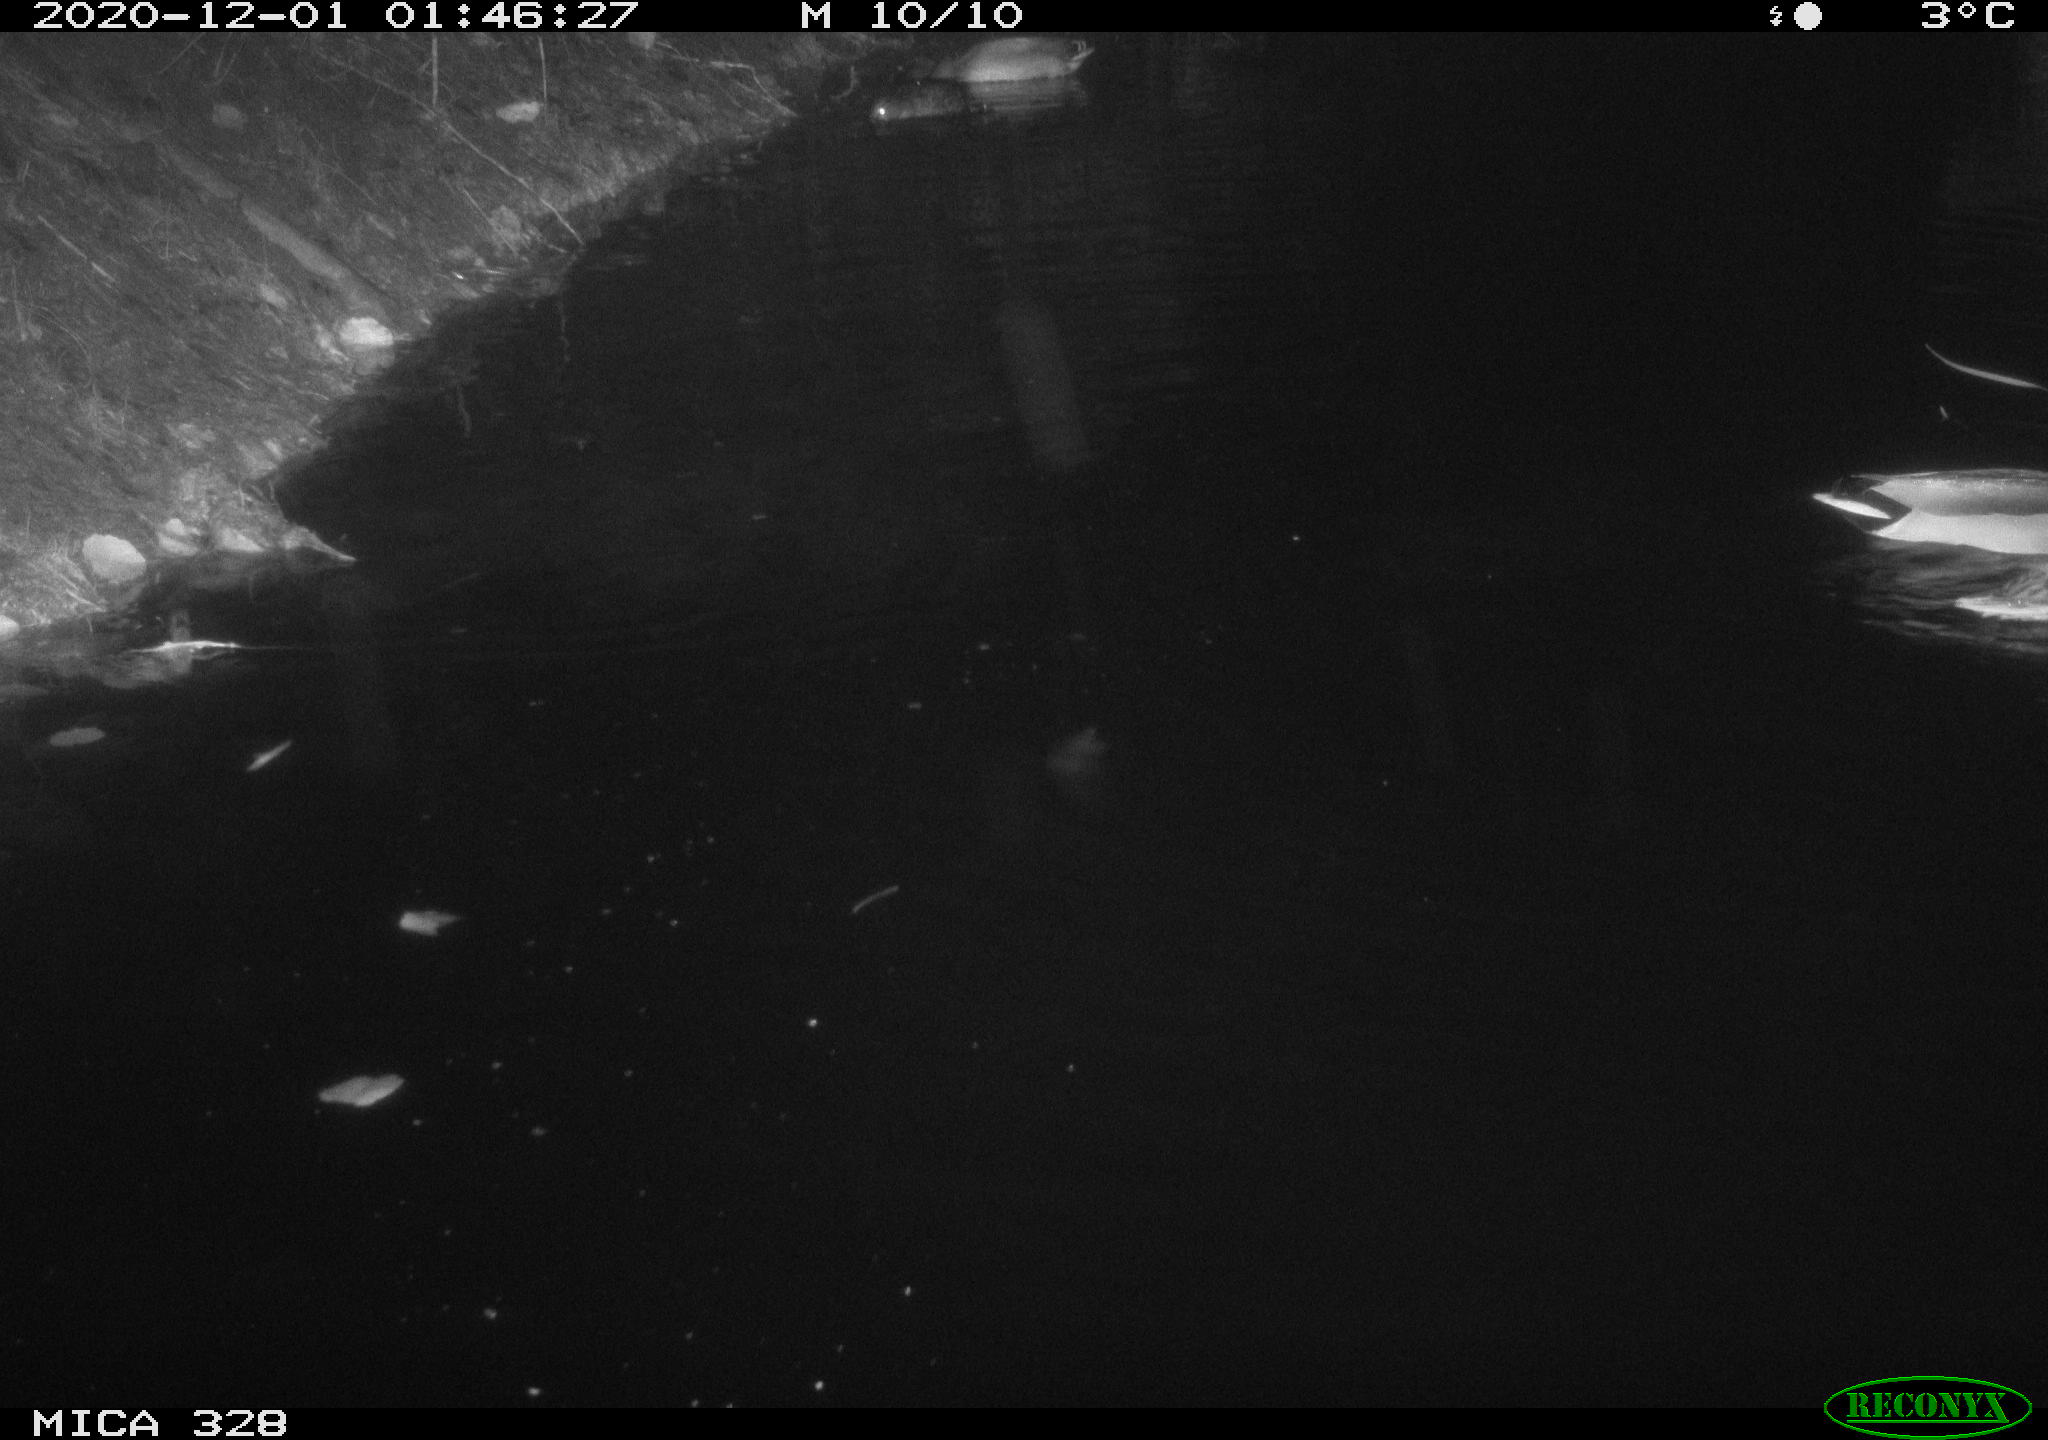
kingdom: Animalia
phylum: Chordata
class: Aves
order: Anseriformes
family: Anatidae
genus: Anas
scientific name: Anas platyrhynchos
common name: Mallard
